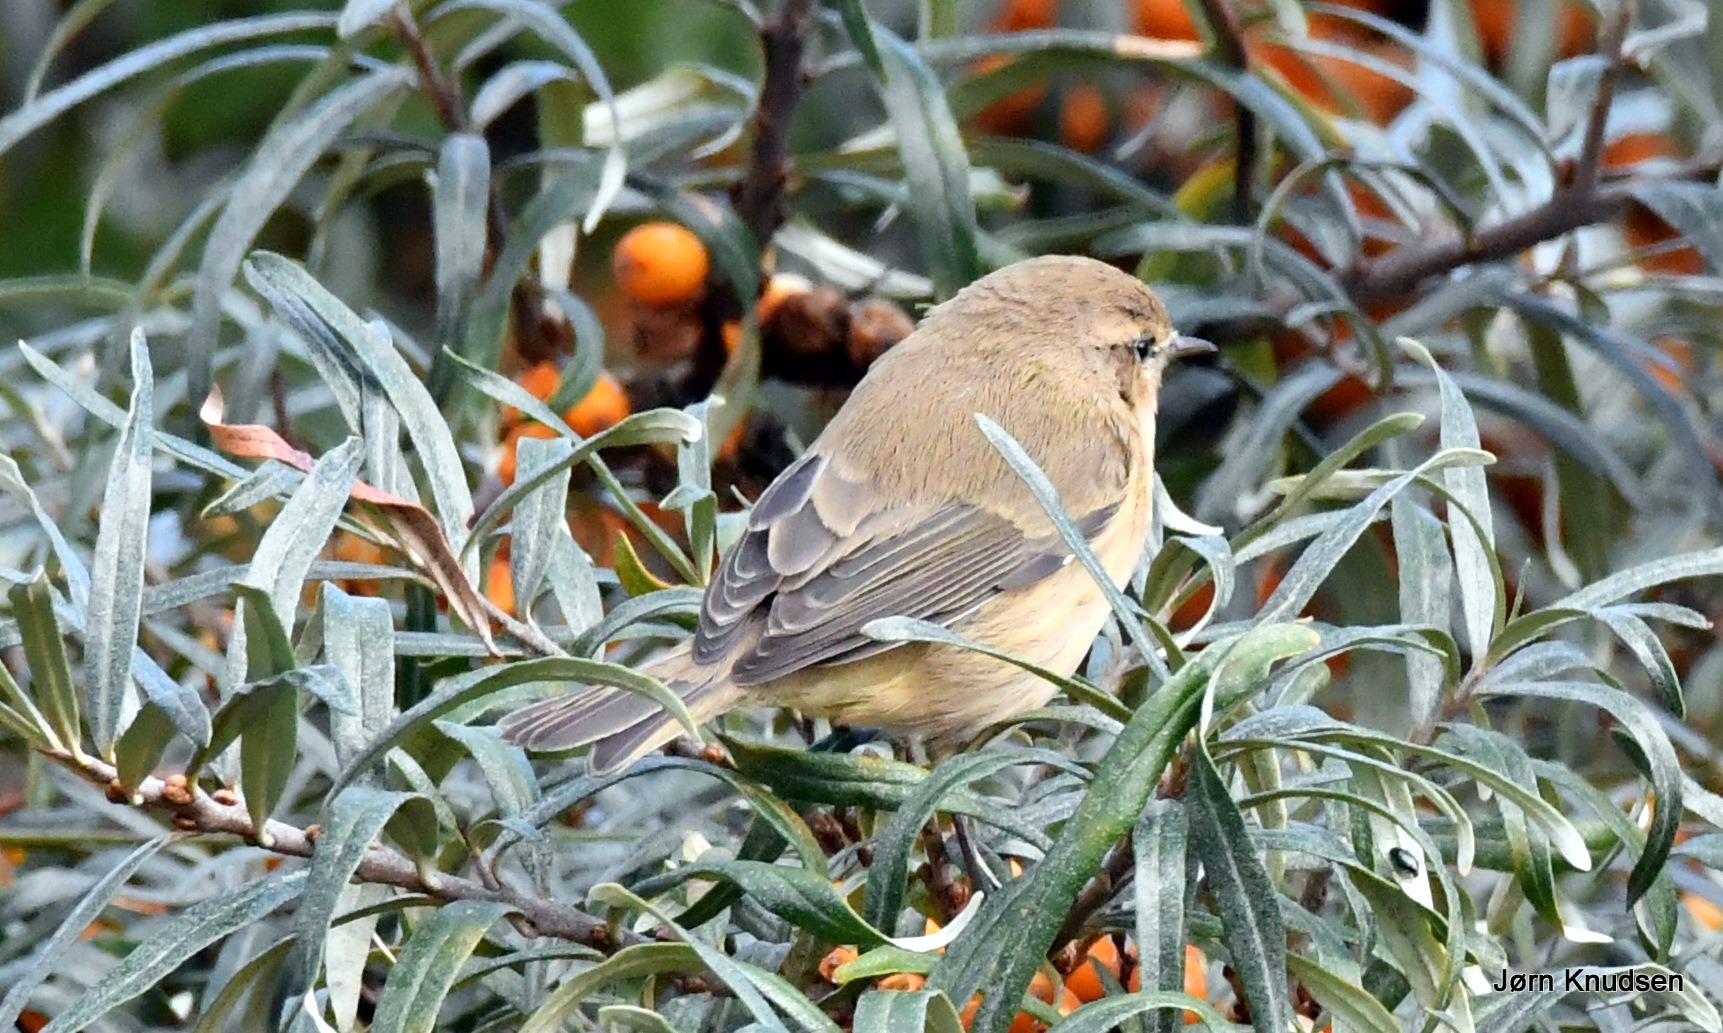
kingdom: Animalia
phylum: Chordata
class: Aves
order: Passeriformes
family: Phylloscopidae
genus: Phylloscopus
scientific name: Phylloscopus collybita
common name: Gransanger
